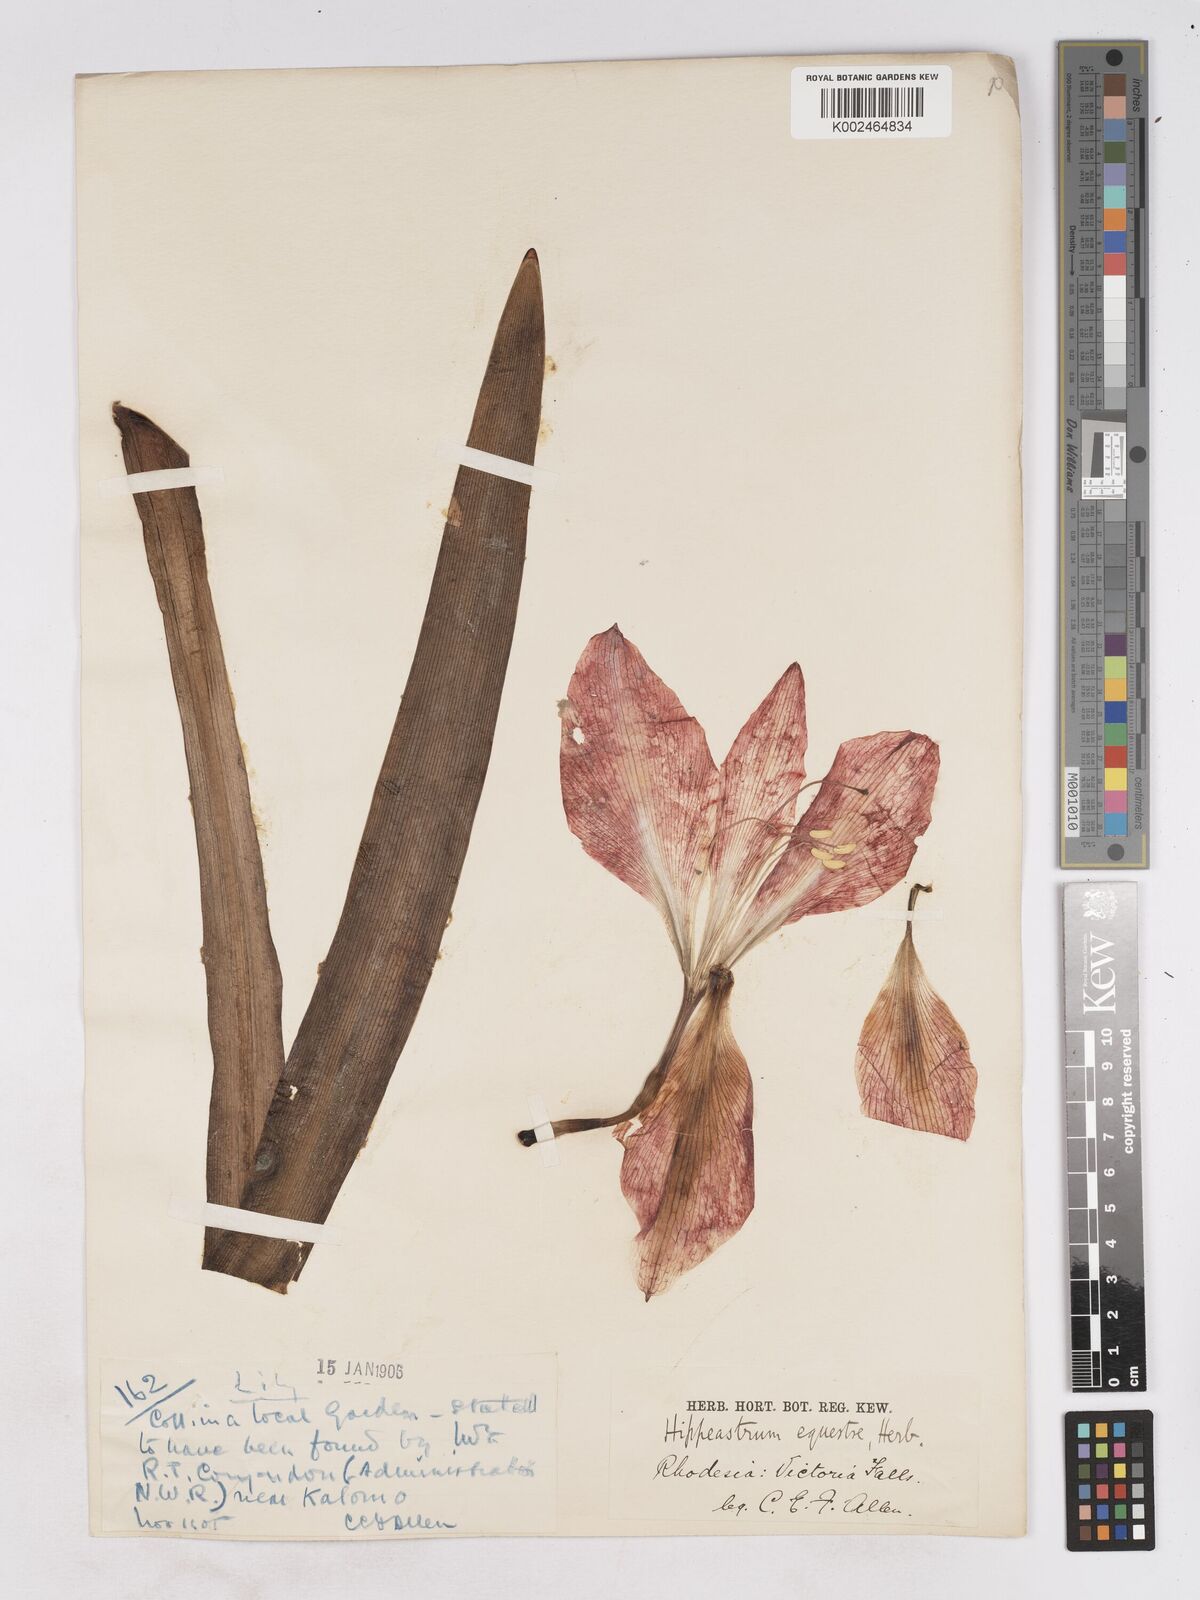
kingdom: Plantae
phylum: Tracheophyta
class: Liliopsida
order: Asparagales
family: Amaryllidaceae
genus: Hippeastrum
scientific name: Hippeastrum
